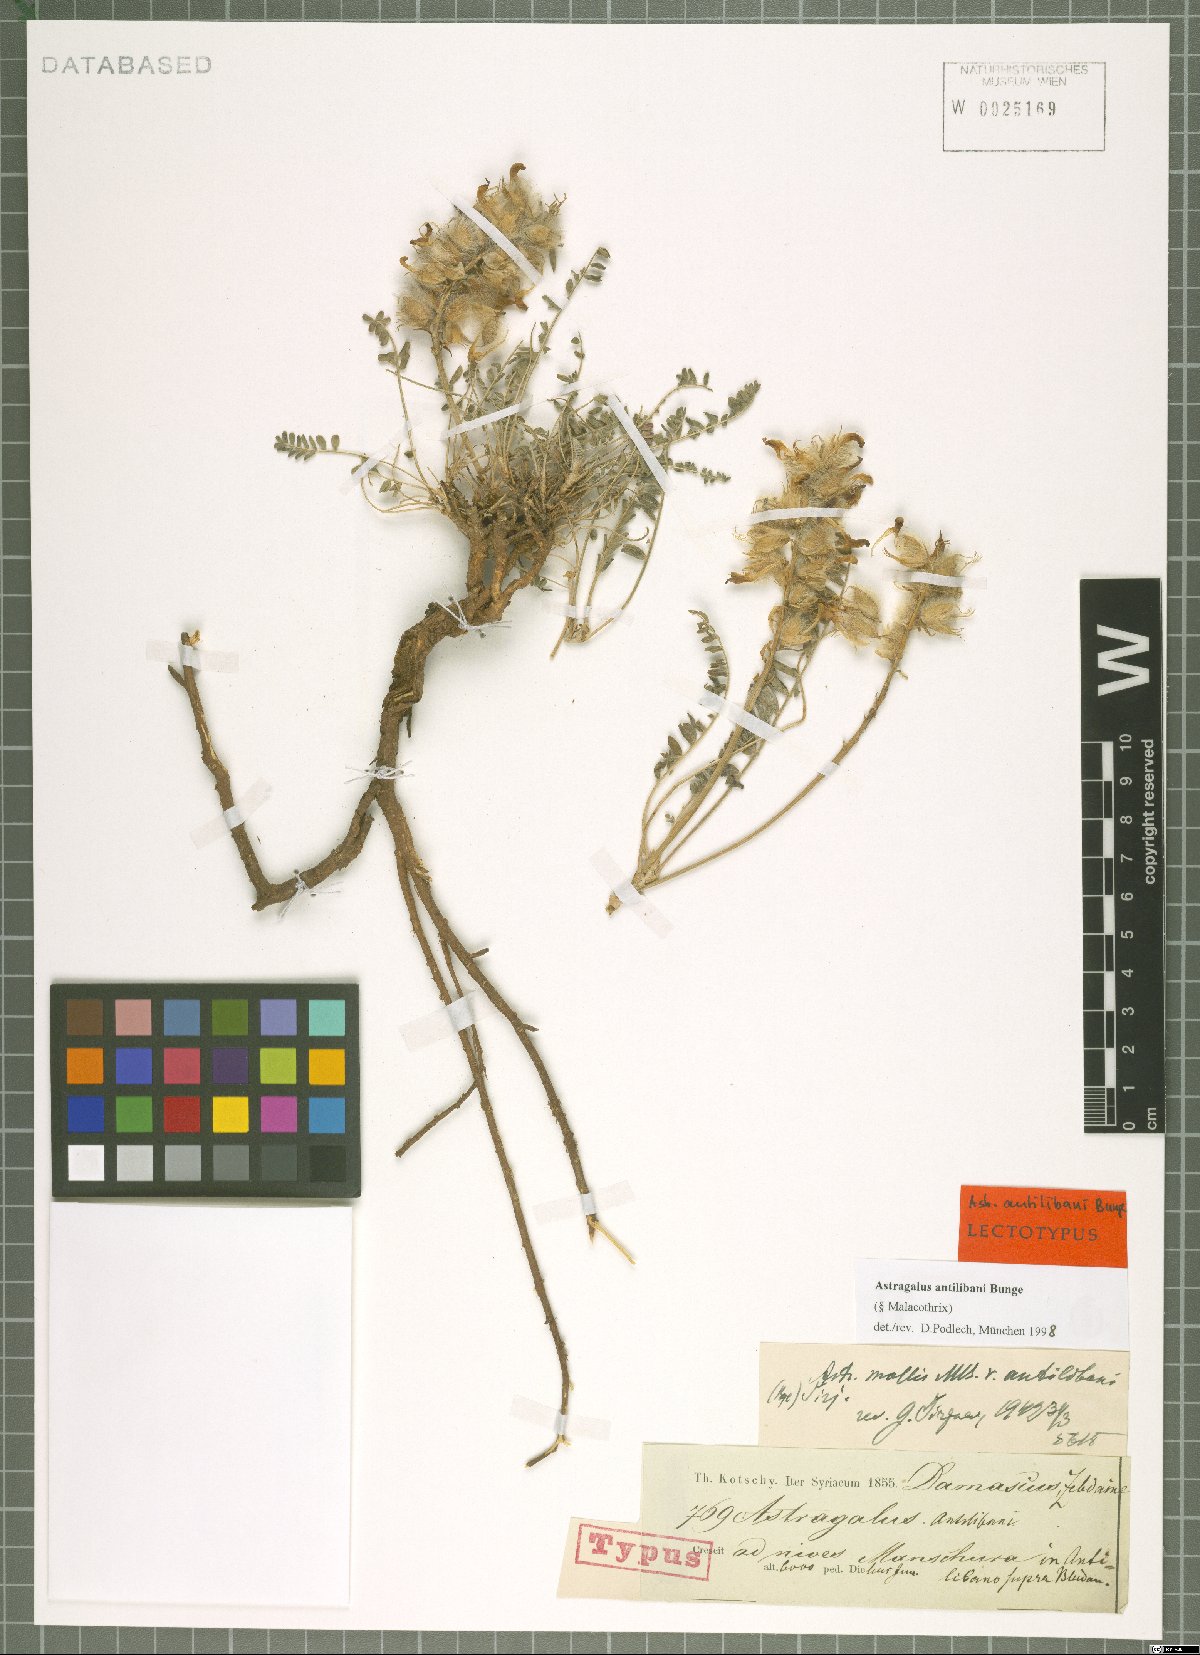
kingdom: Plantae
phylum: Tracheophyta
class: Magnoliopsida
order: Fabales
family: Fabaceae
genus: Astragalus
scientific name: Astragalus antilibani
